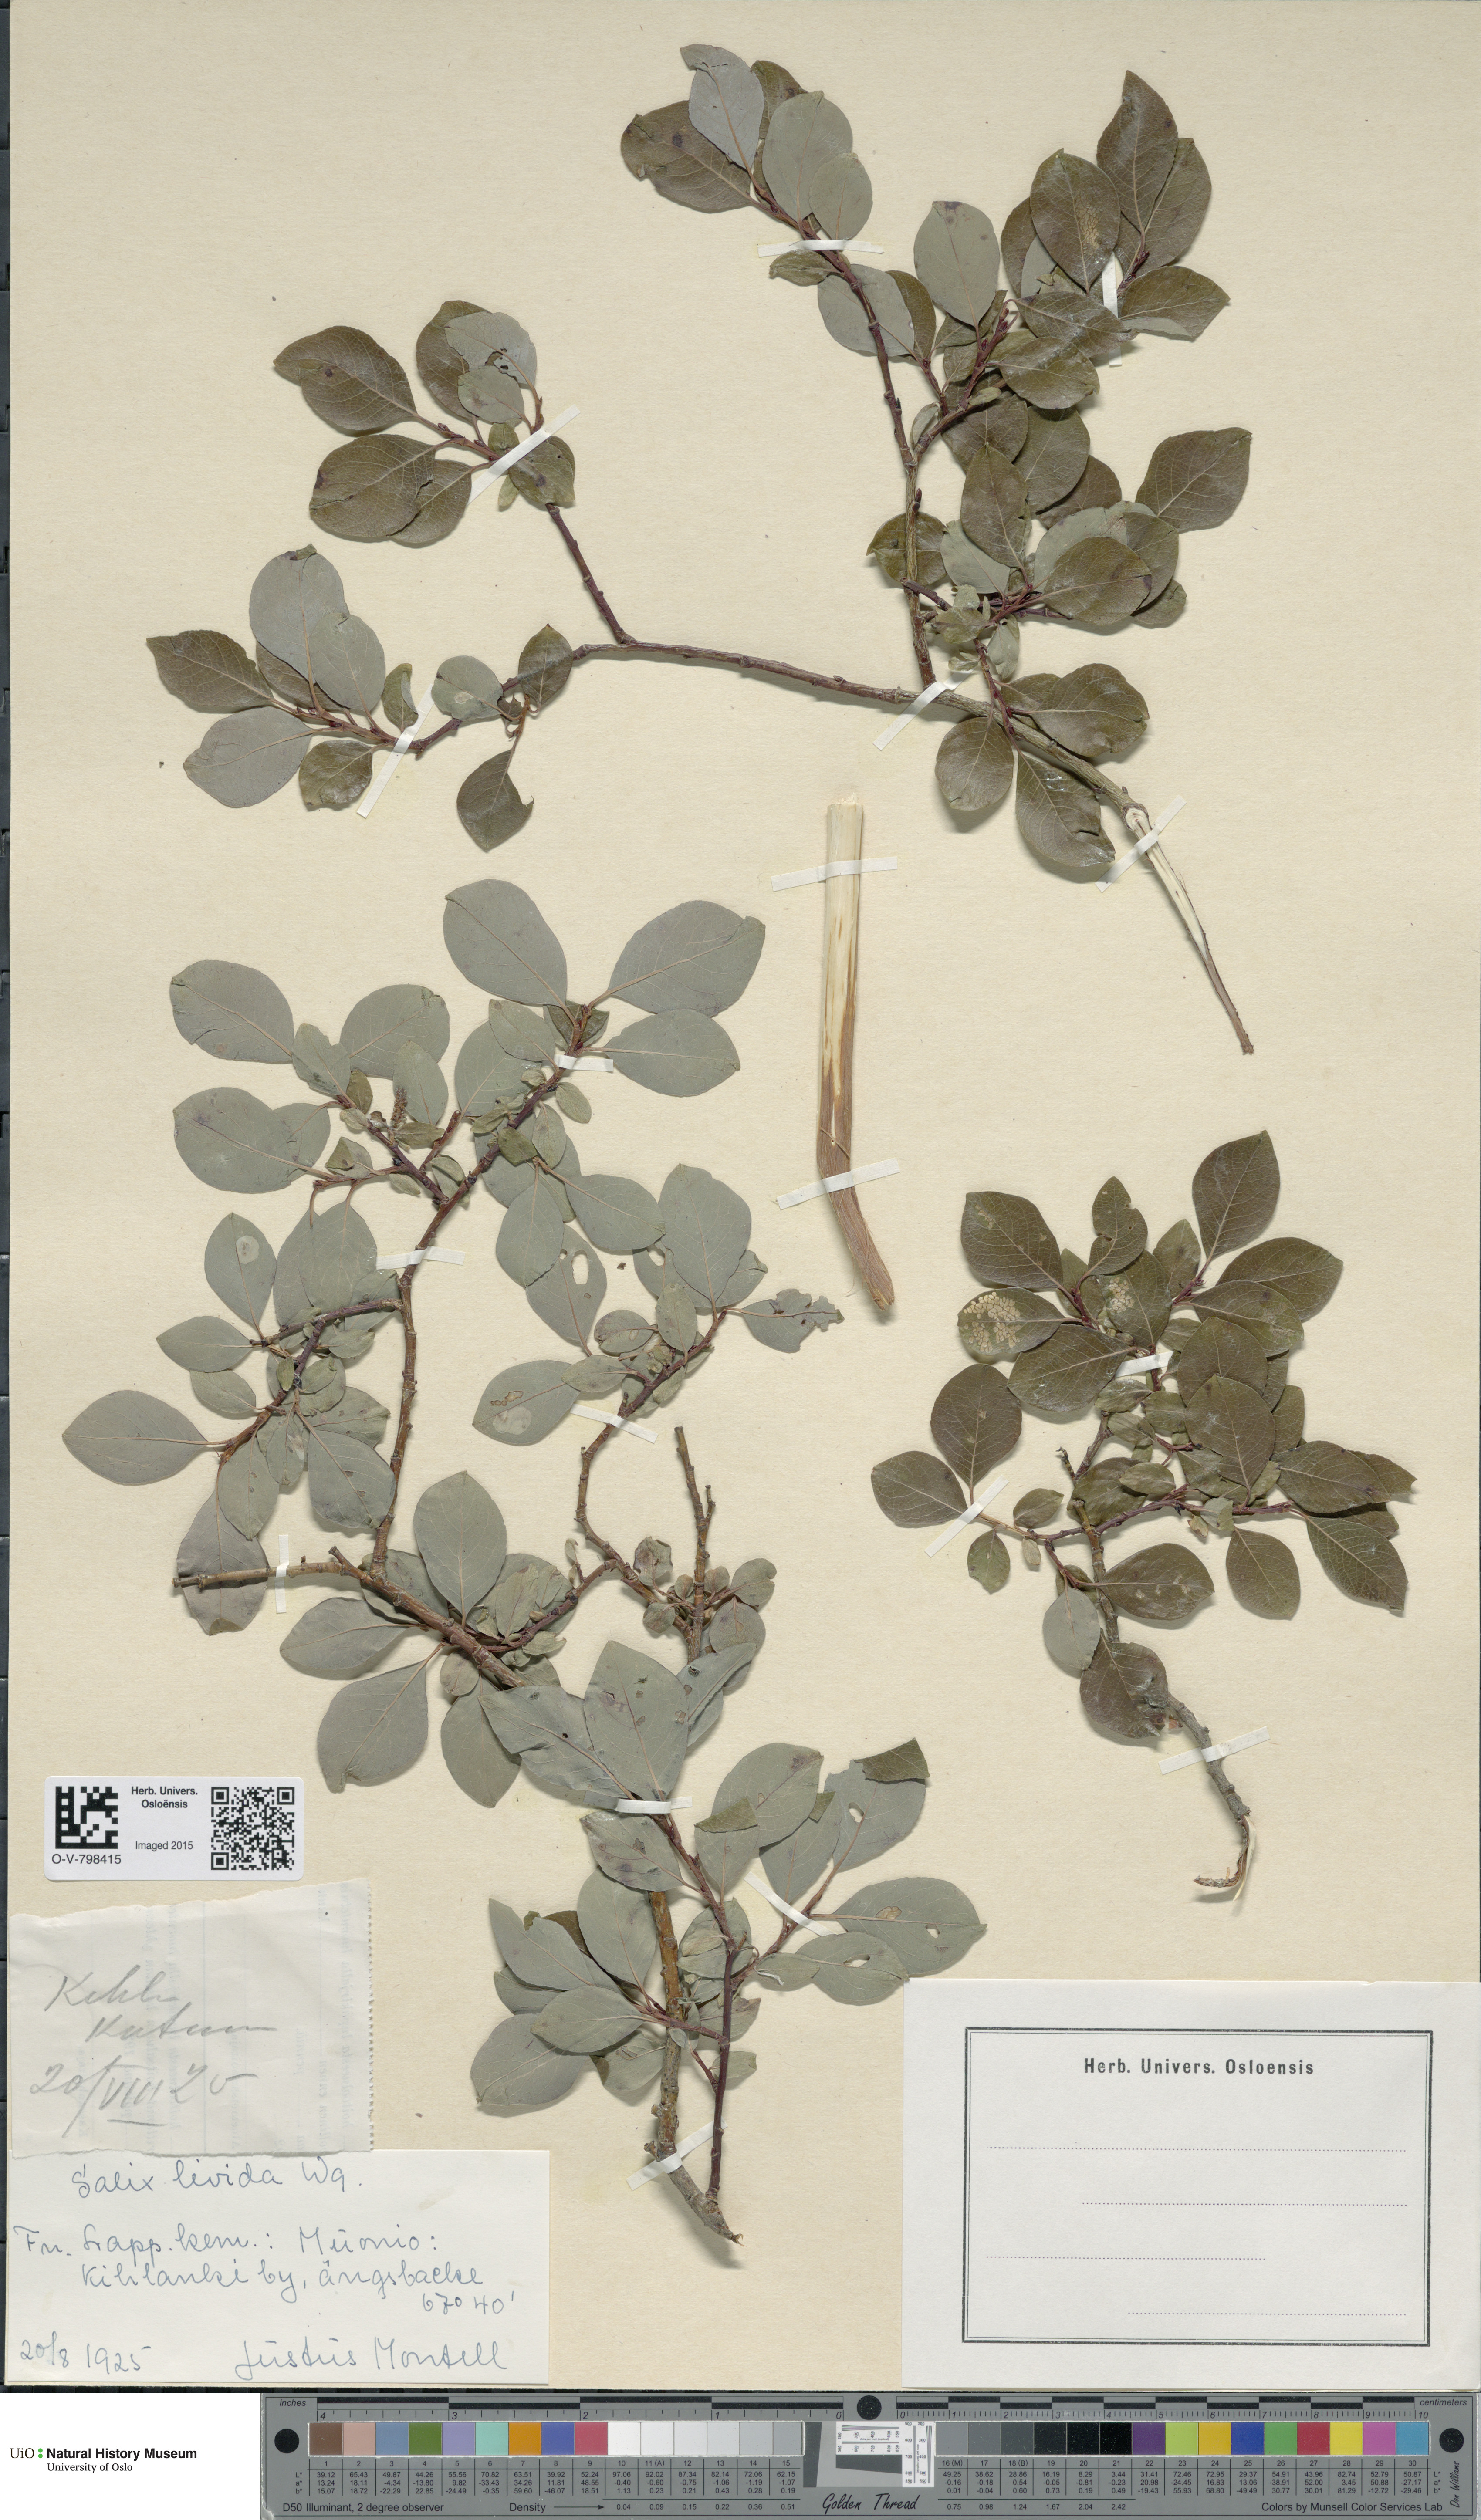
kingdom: Plantae
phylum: Tracheophyta
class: Magnoliopsida
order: Malpighiales
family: Salicaceae
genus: Salix
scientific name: Salix starkeana
